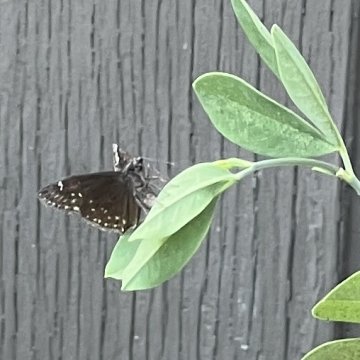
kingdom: Animalia
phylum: Arthropoda
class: Insecta
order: Lepidoptera
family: Hesperiidae
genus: Gesta
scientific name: Gesta
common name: Wild Indigo Duskywing
